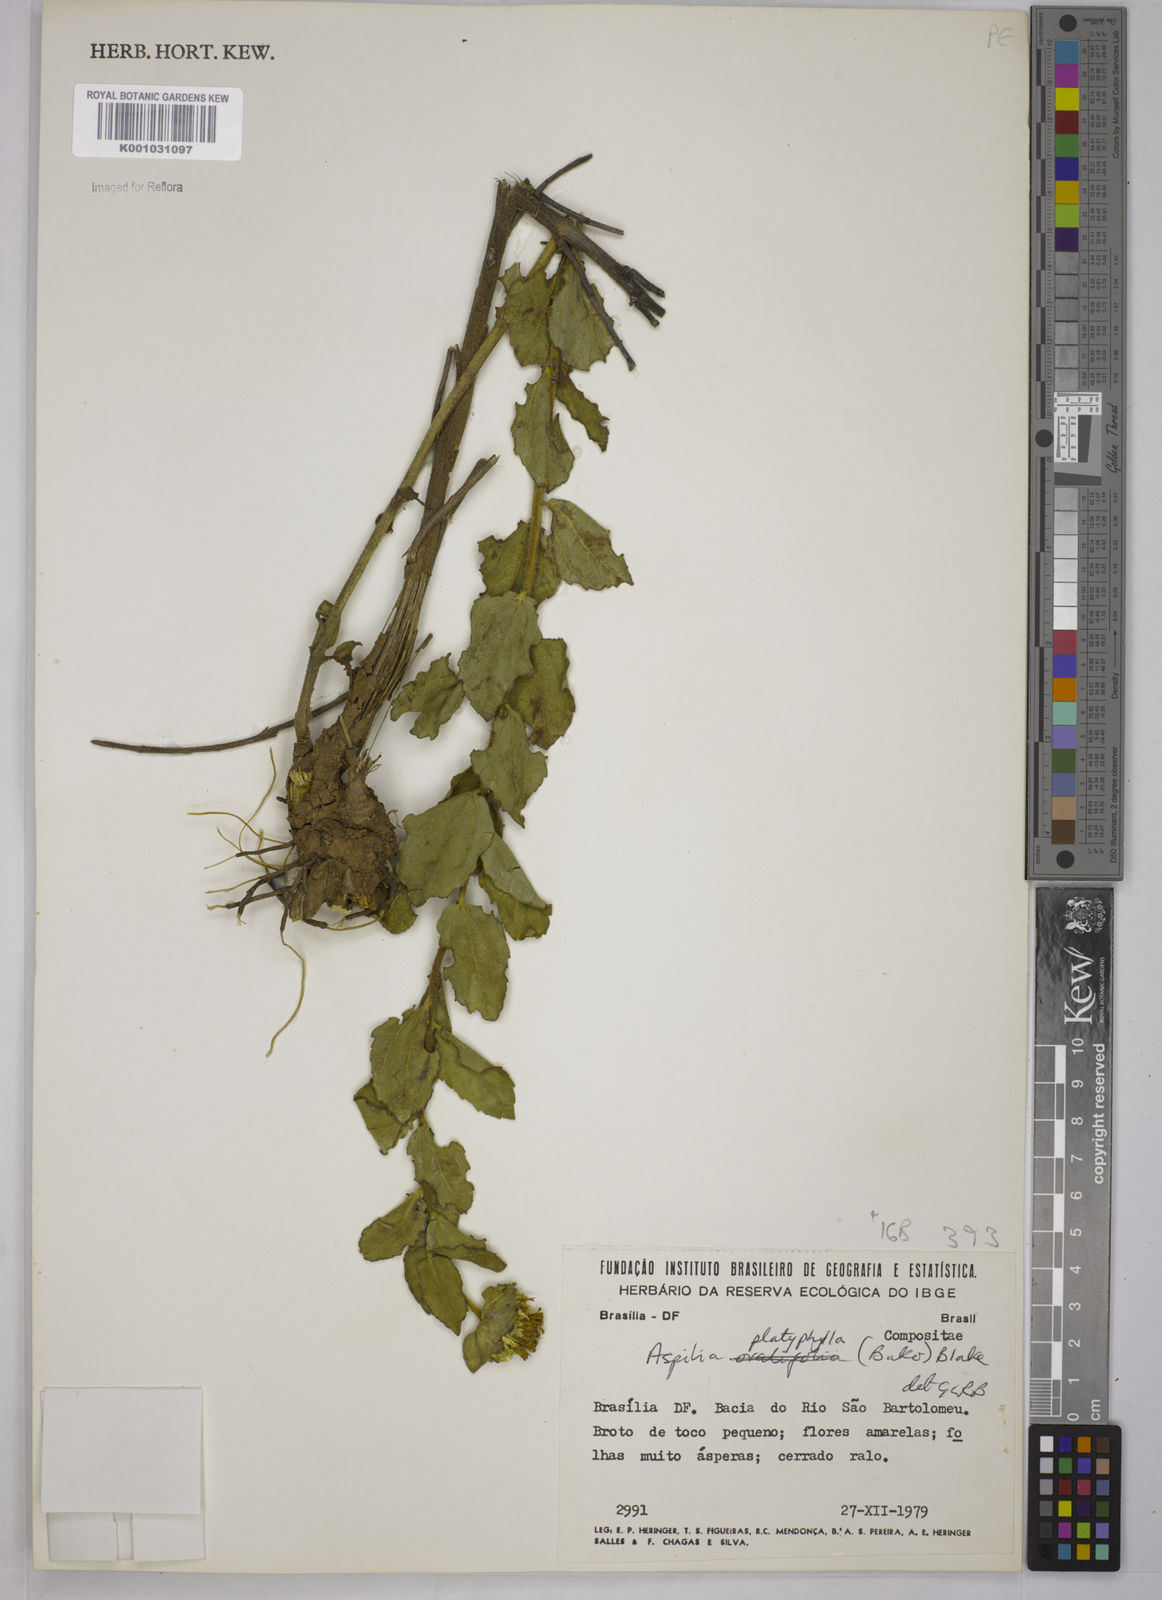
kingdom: Plantae
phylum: Tracheophyta
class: Magnoliopsida
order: Asterales
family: Asteraceae
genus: Aspilia
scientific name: Aspilia
